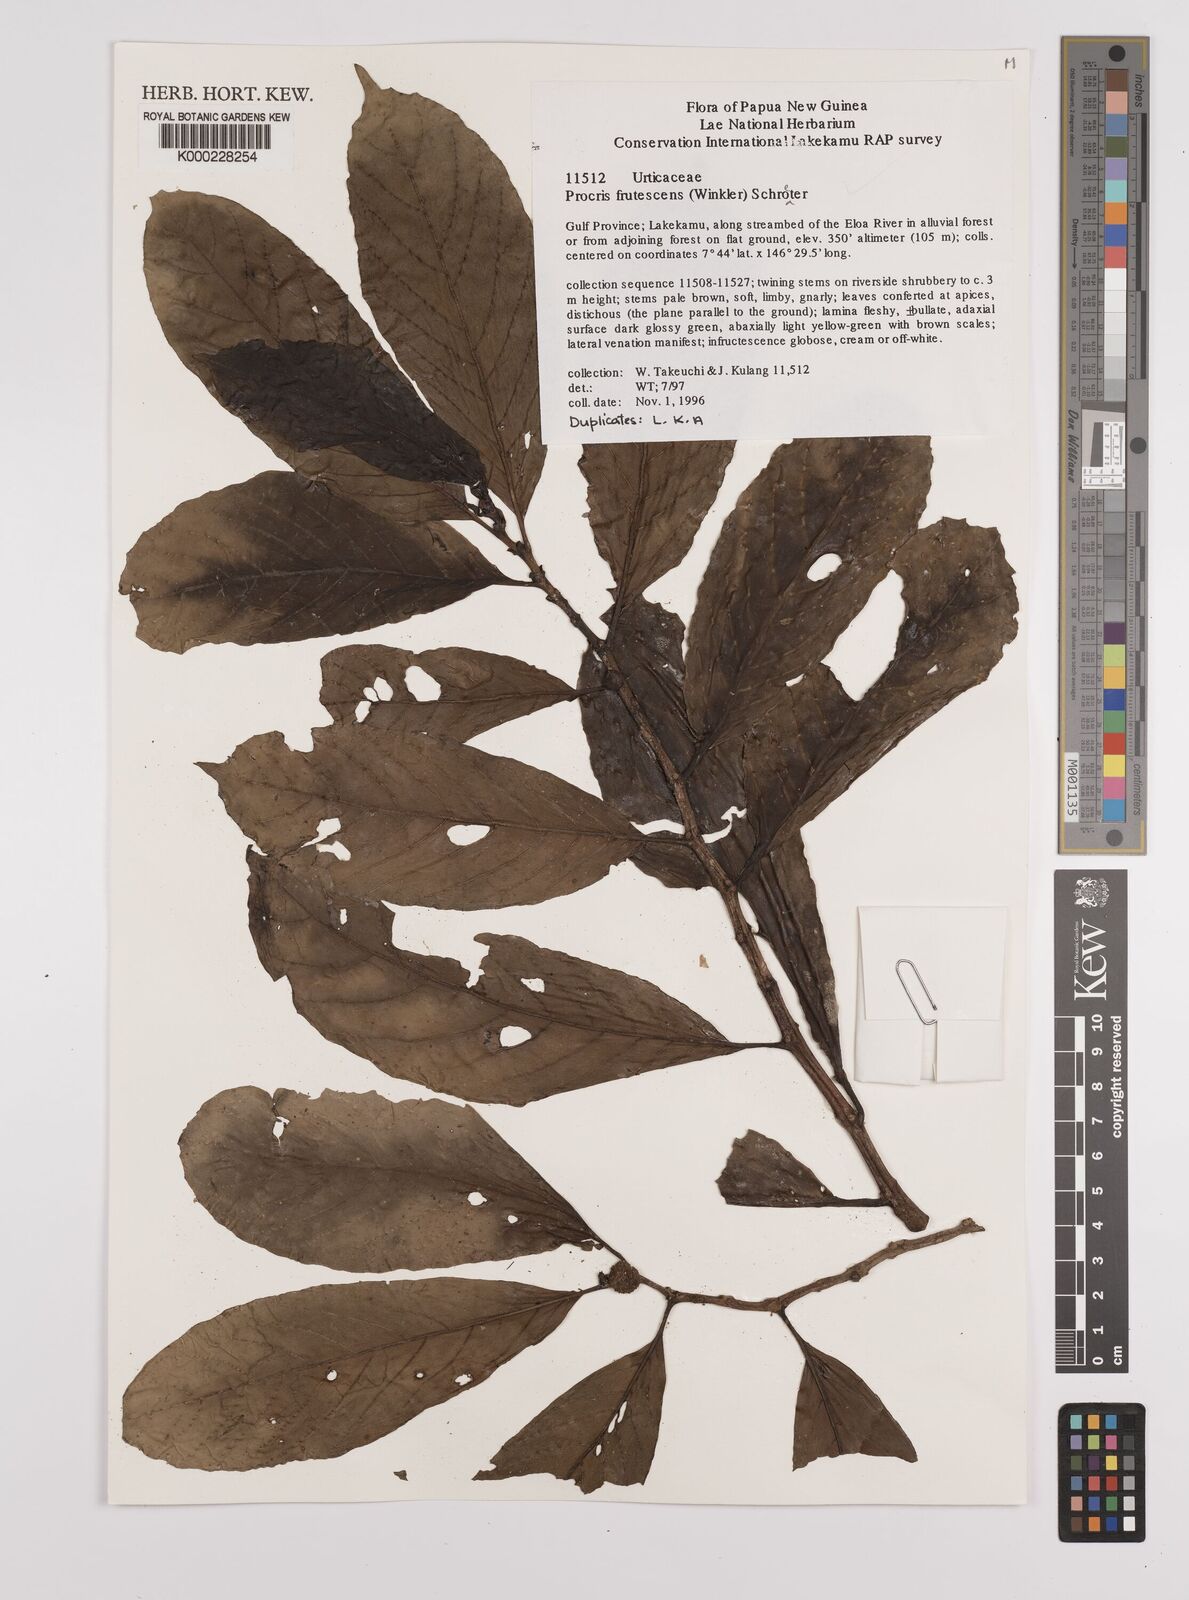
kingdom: Plantae
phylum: Tracheophyta
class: Magnoliopsida
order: Rosales
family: Urticaceae
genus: Procris
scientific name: Procris
